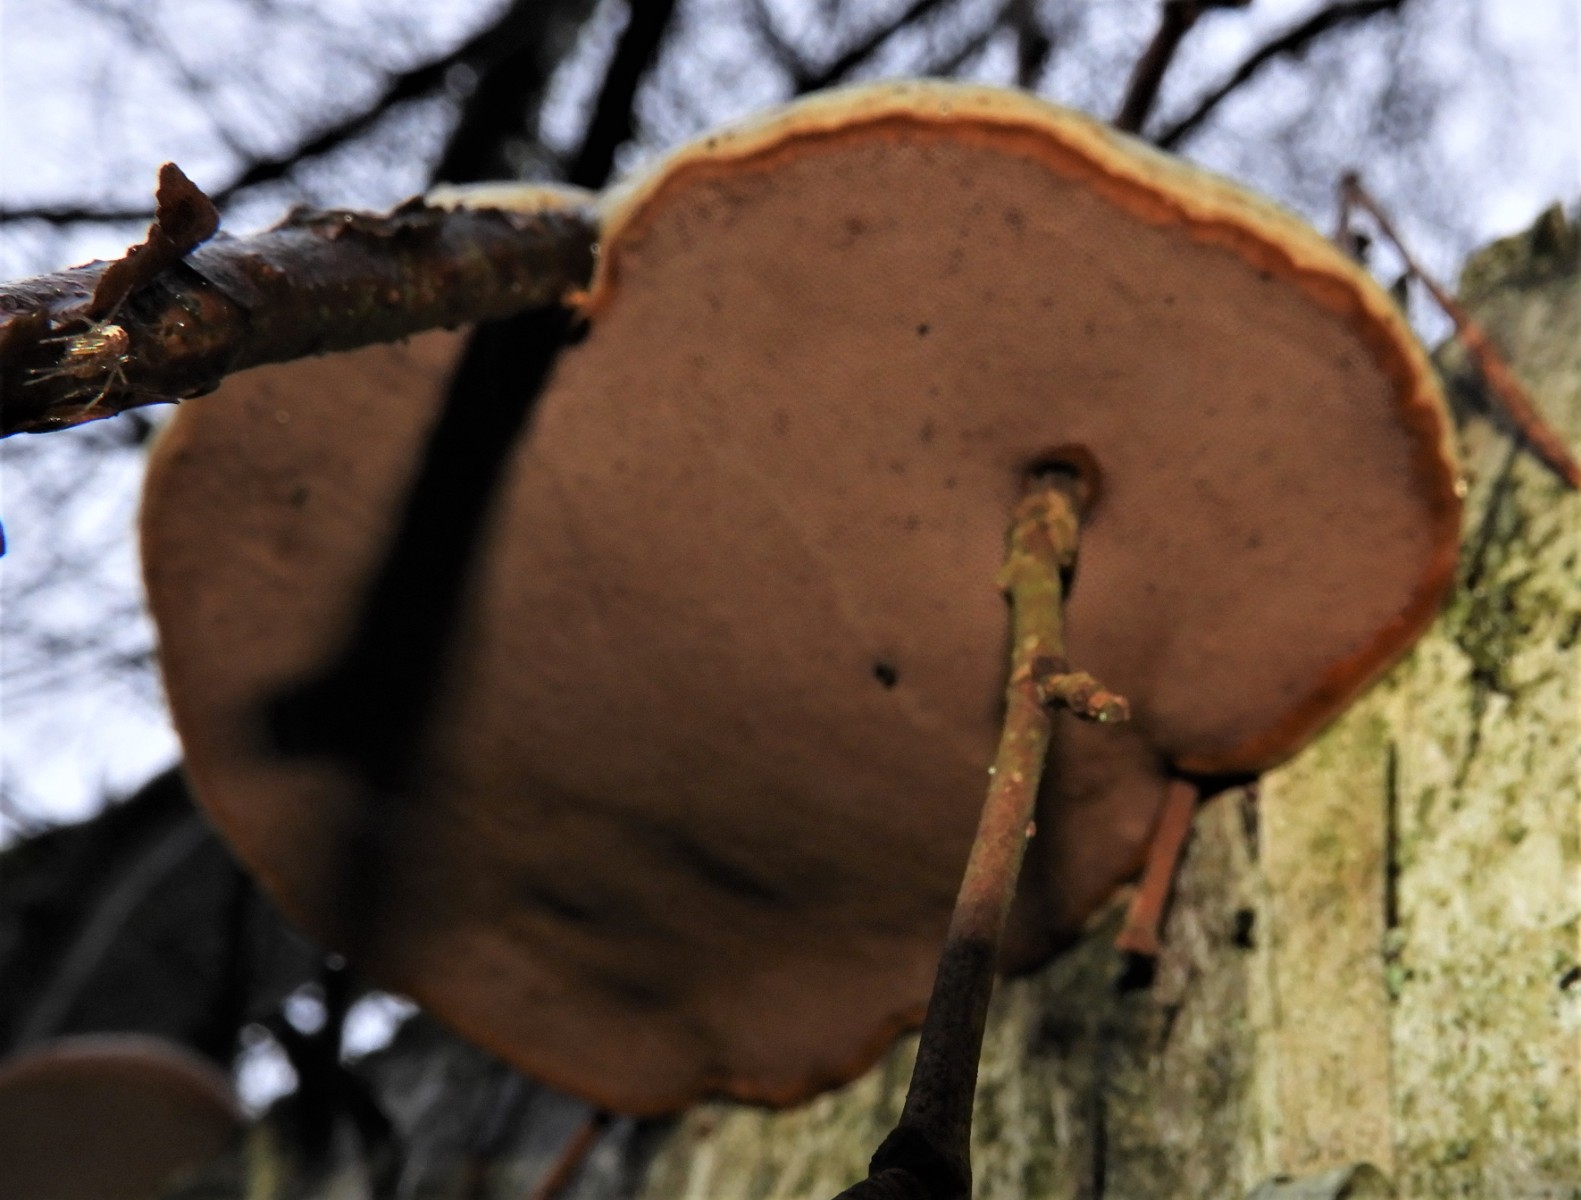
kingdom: Fungi
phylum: Basidiomycota
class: Agaricomycetes
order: Polyporales
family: Polyporaceae
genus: Fomes
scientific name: Fomes fomentarius
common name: tøndersvamp
